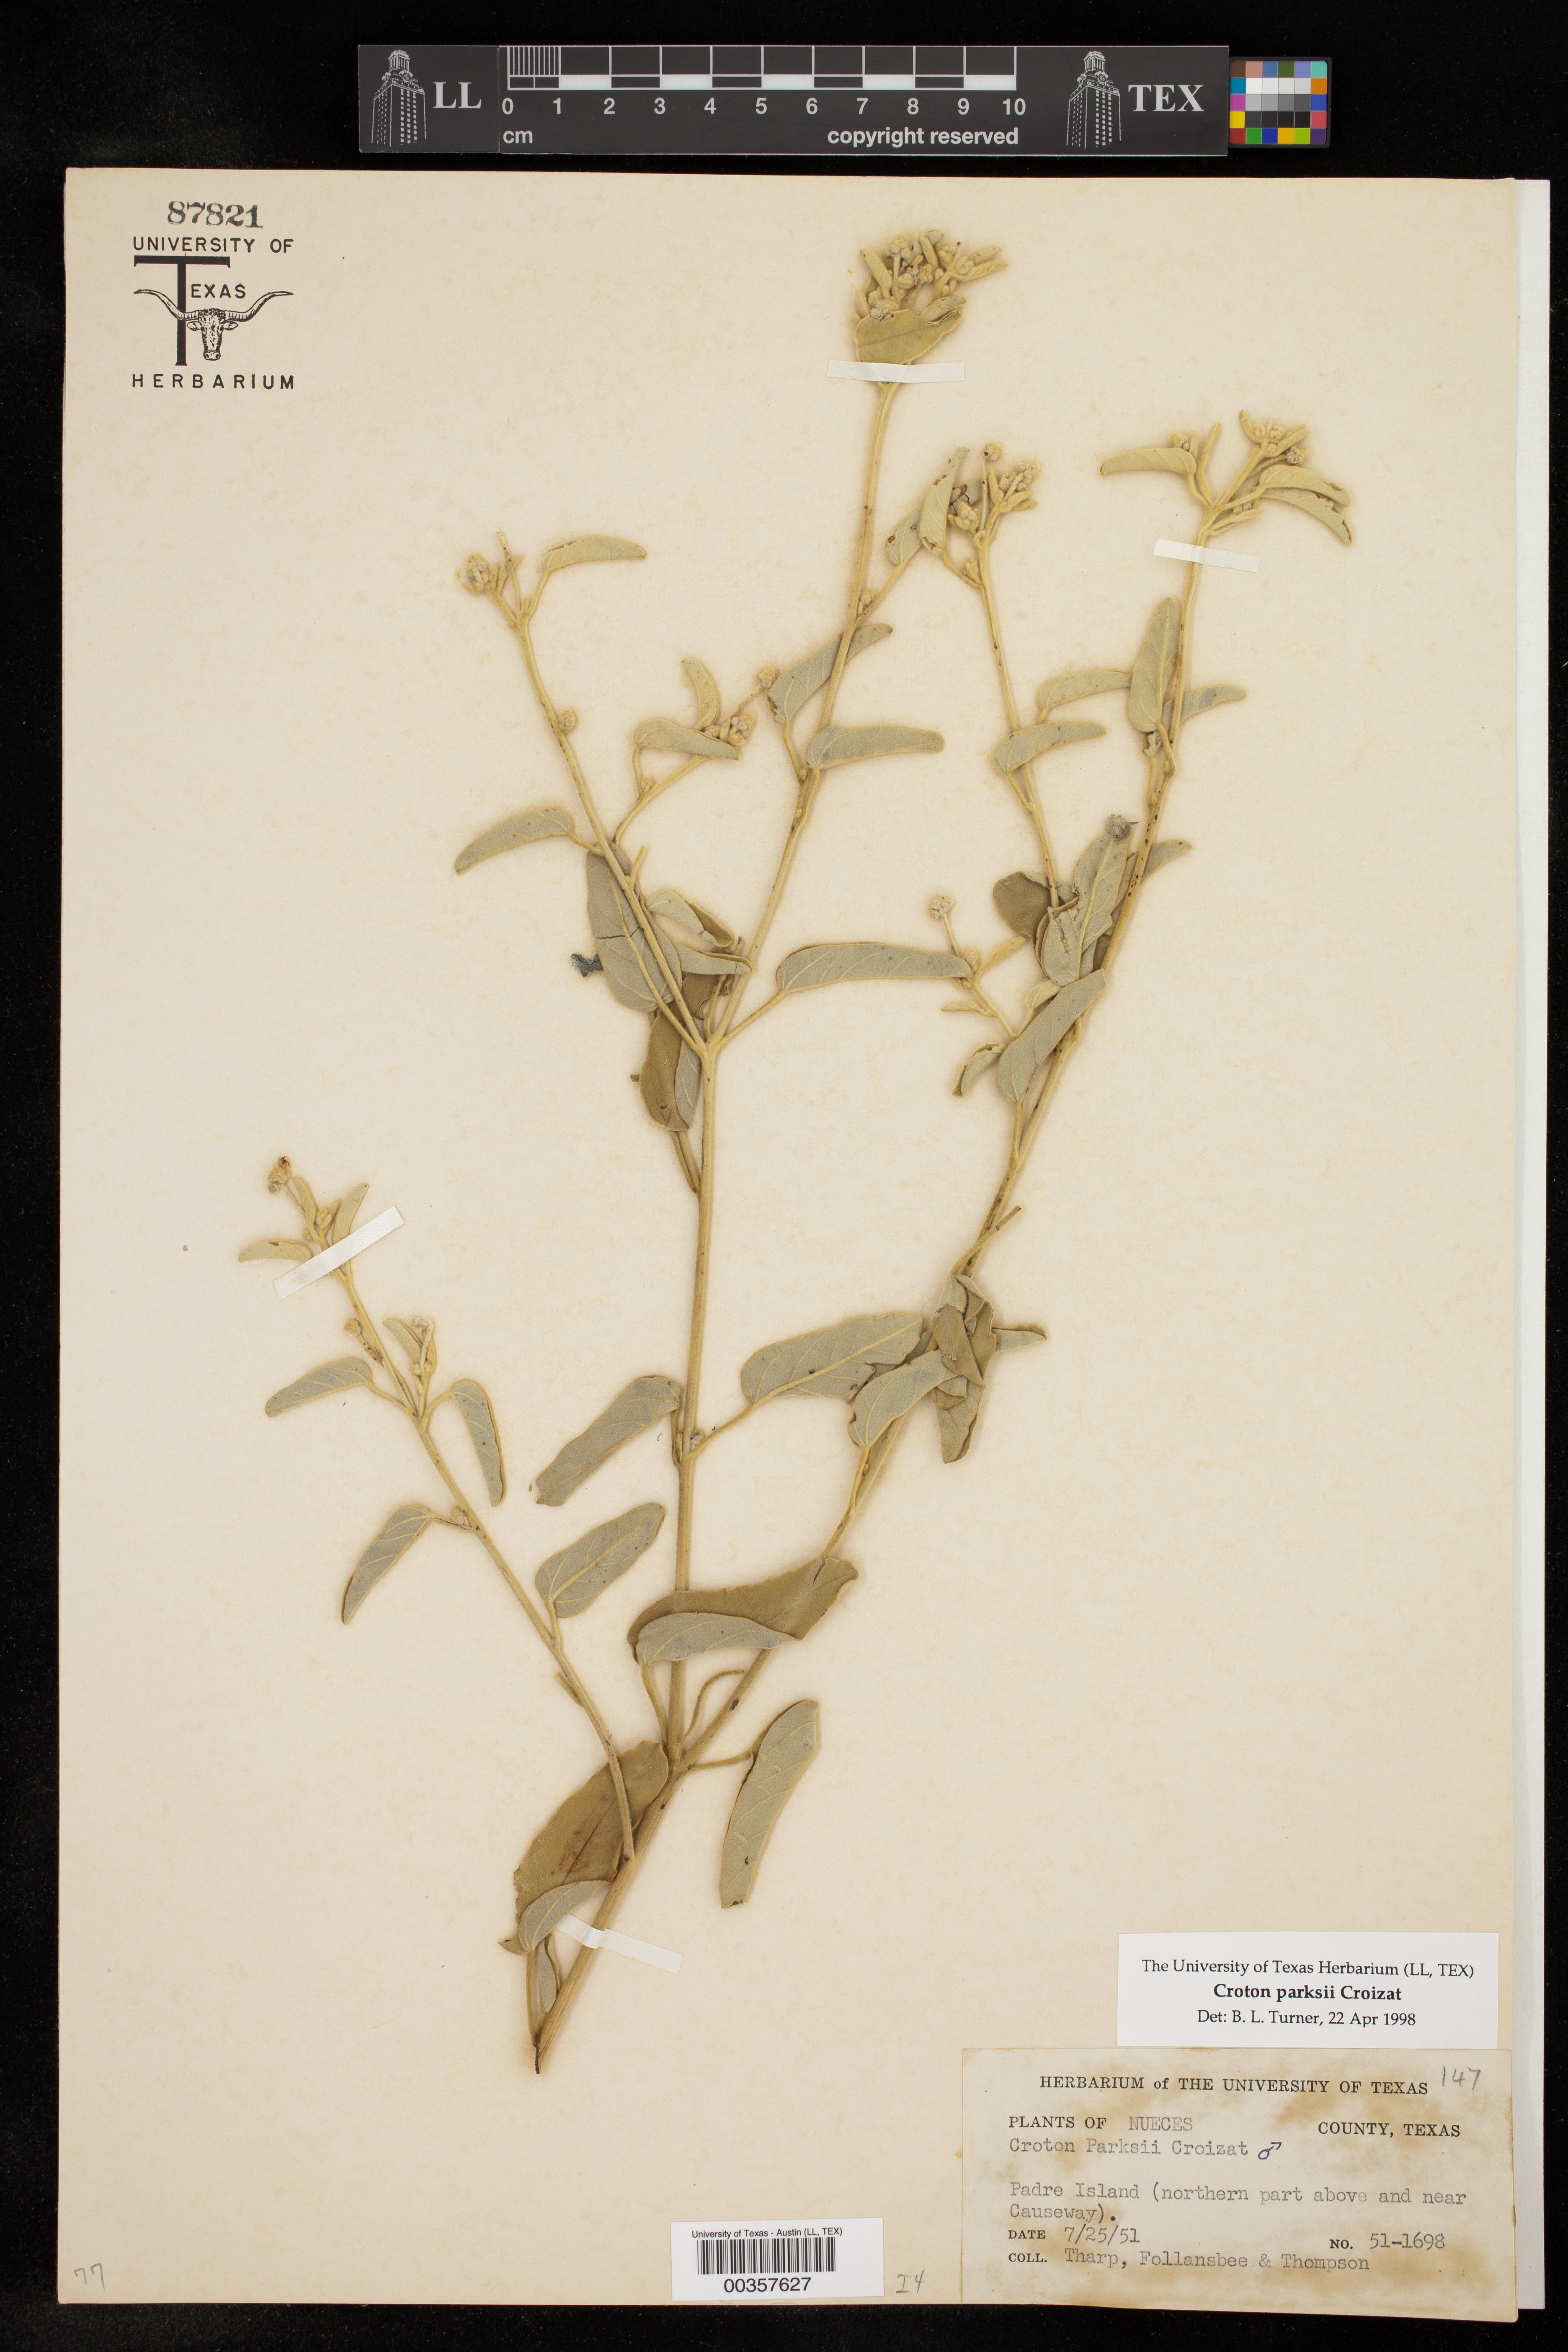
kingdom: Plantae
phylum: Tracheophyta
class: Magnoliopsida
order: Malpighiales
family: Euphorbiaceae
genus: Croton
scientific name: Croton parksii
